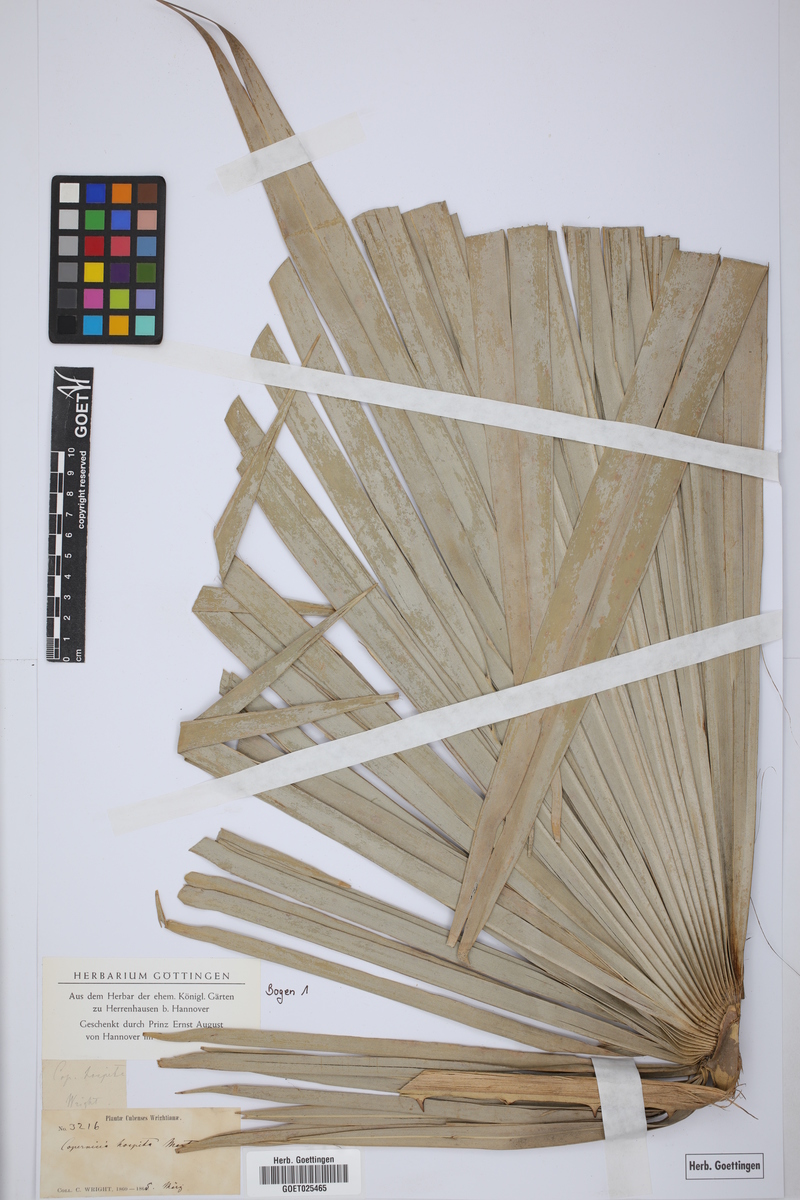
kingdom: Plantae
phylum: Tracheophyta
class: Liliopsida
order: Arecales
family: Arecaceae
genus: Copernicia
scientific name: Copernicia hospita
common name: Cubam palm
